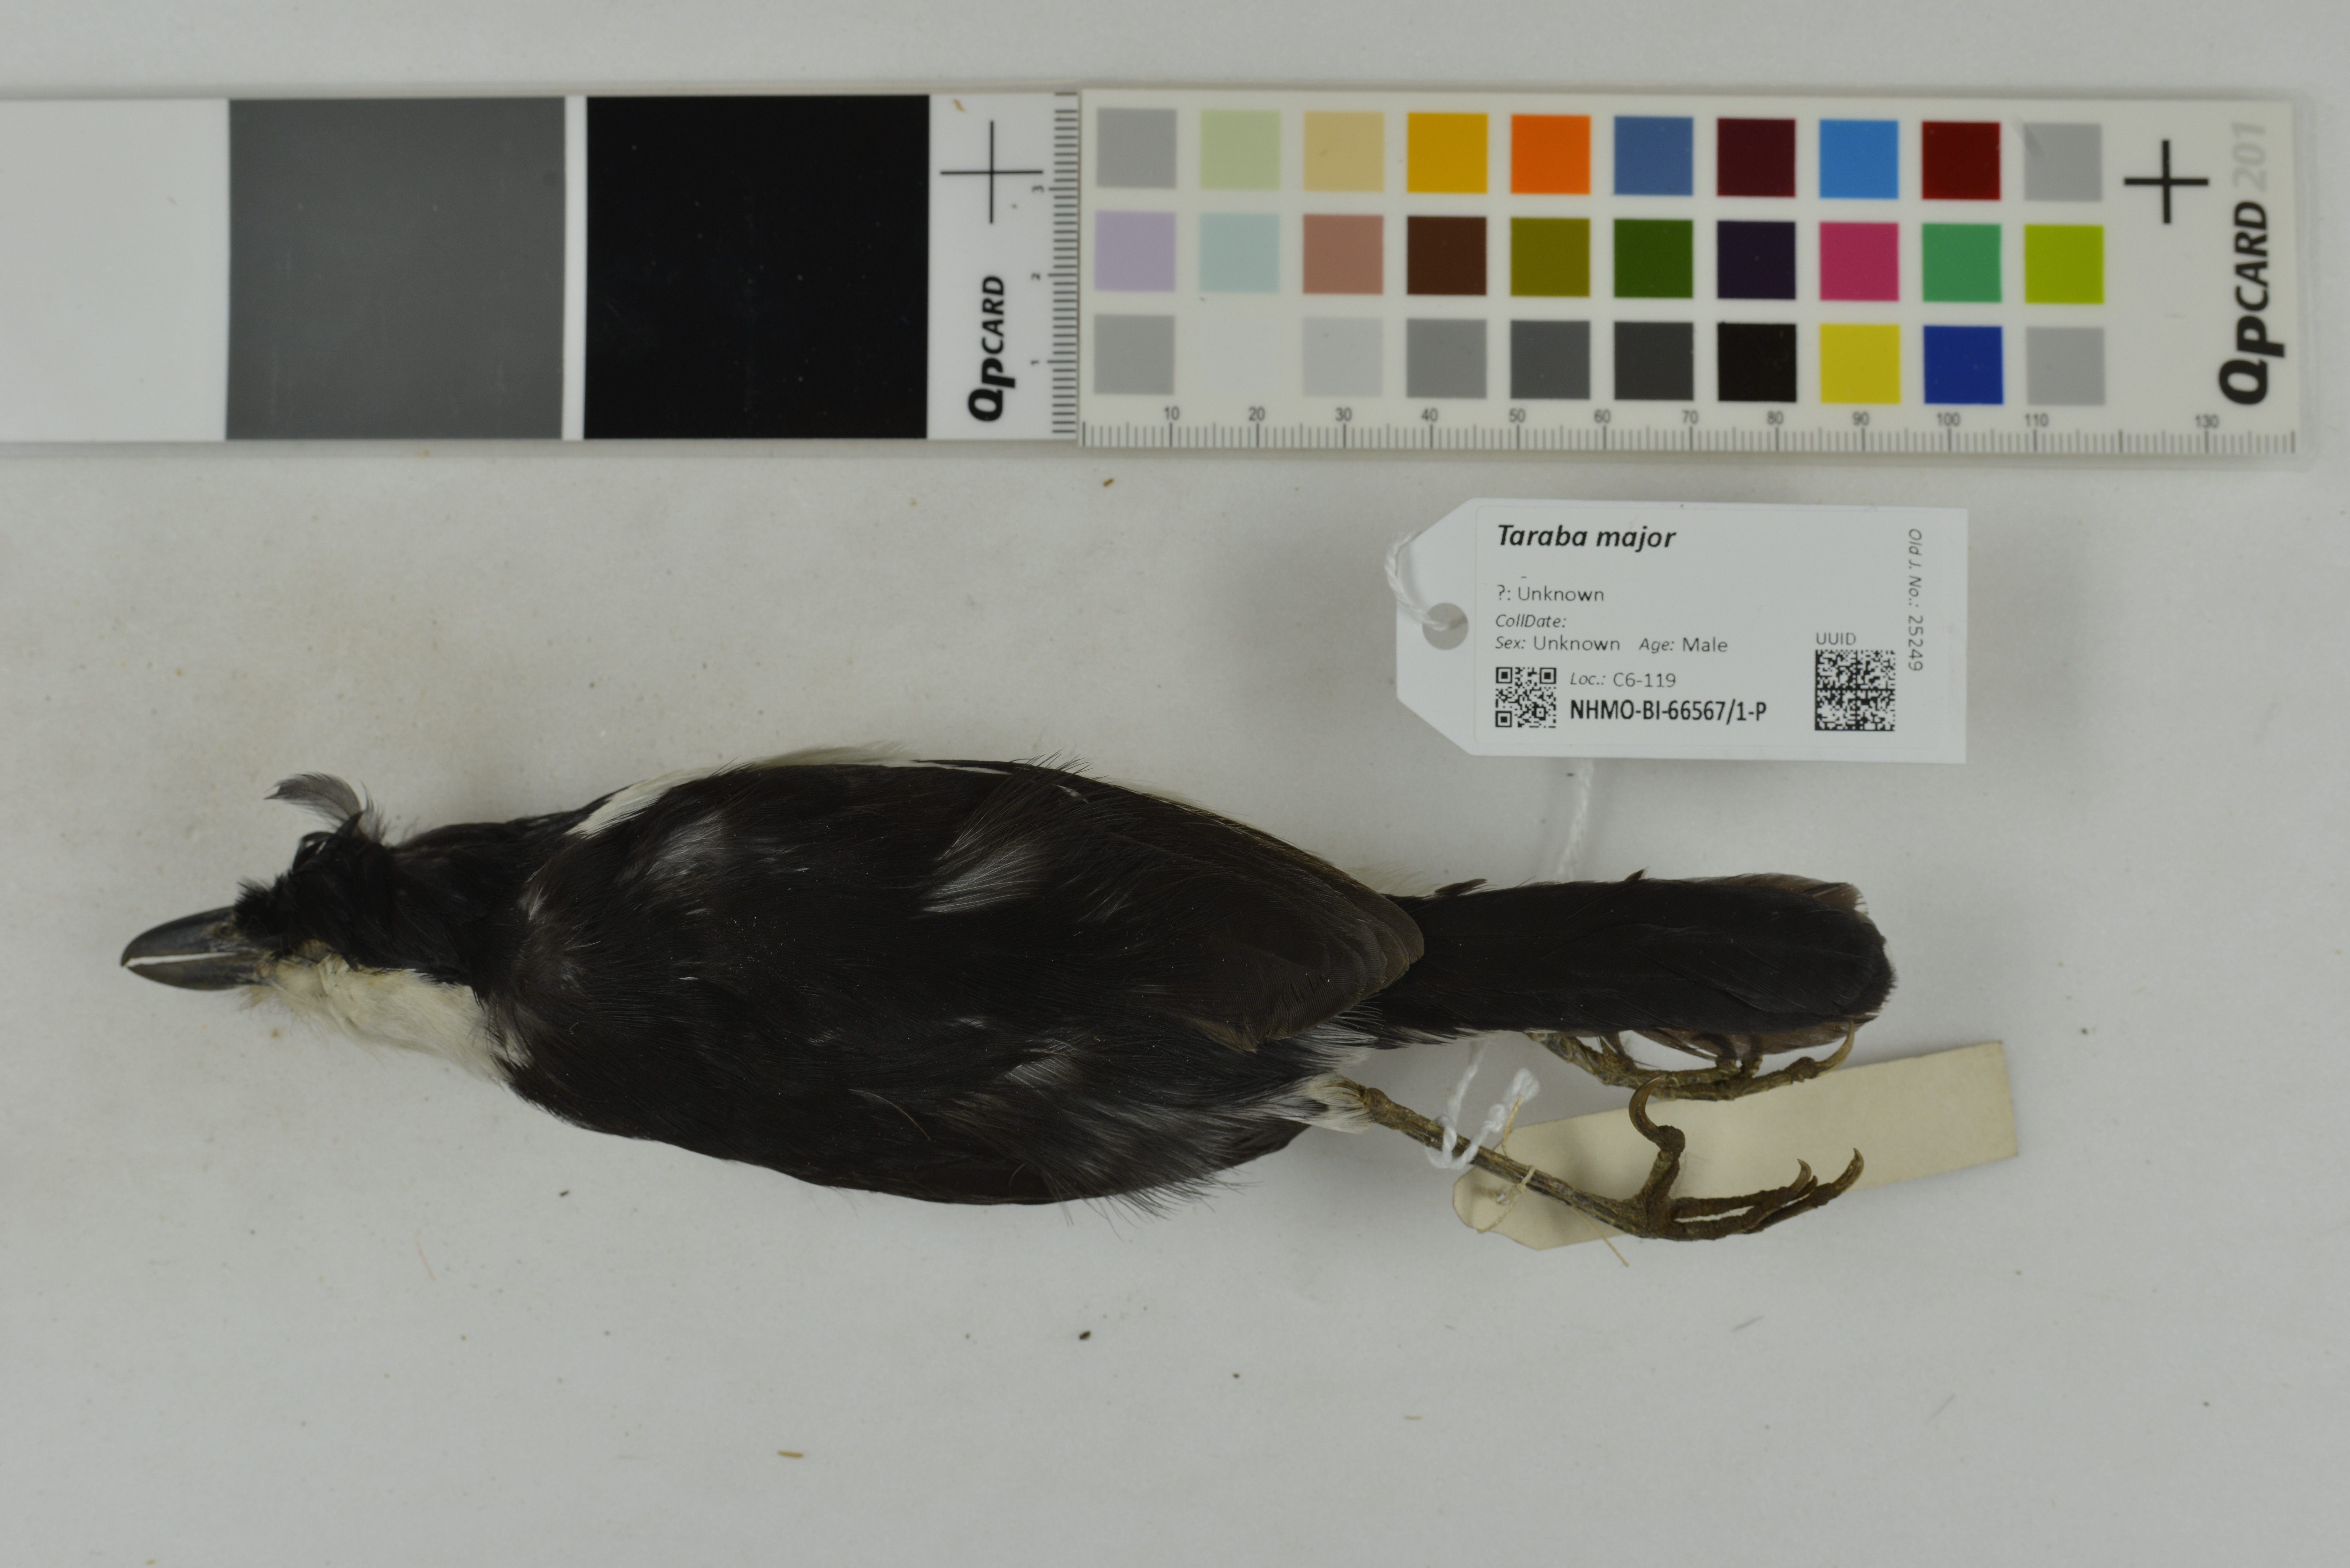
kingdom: Animalia
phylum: Chordata
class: Aves
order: Passeriformes
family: Thamnophilidae
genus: Taraba
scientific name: Taraba major
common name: Great antshrike
